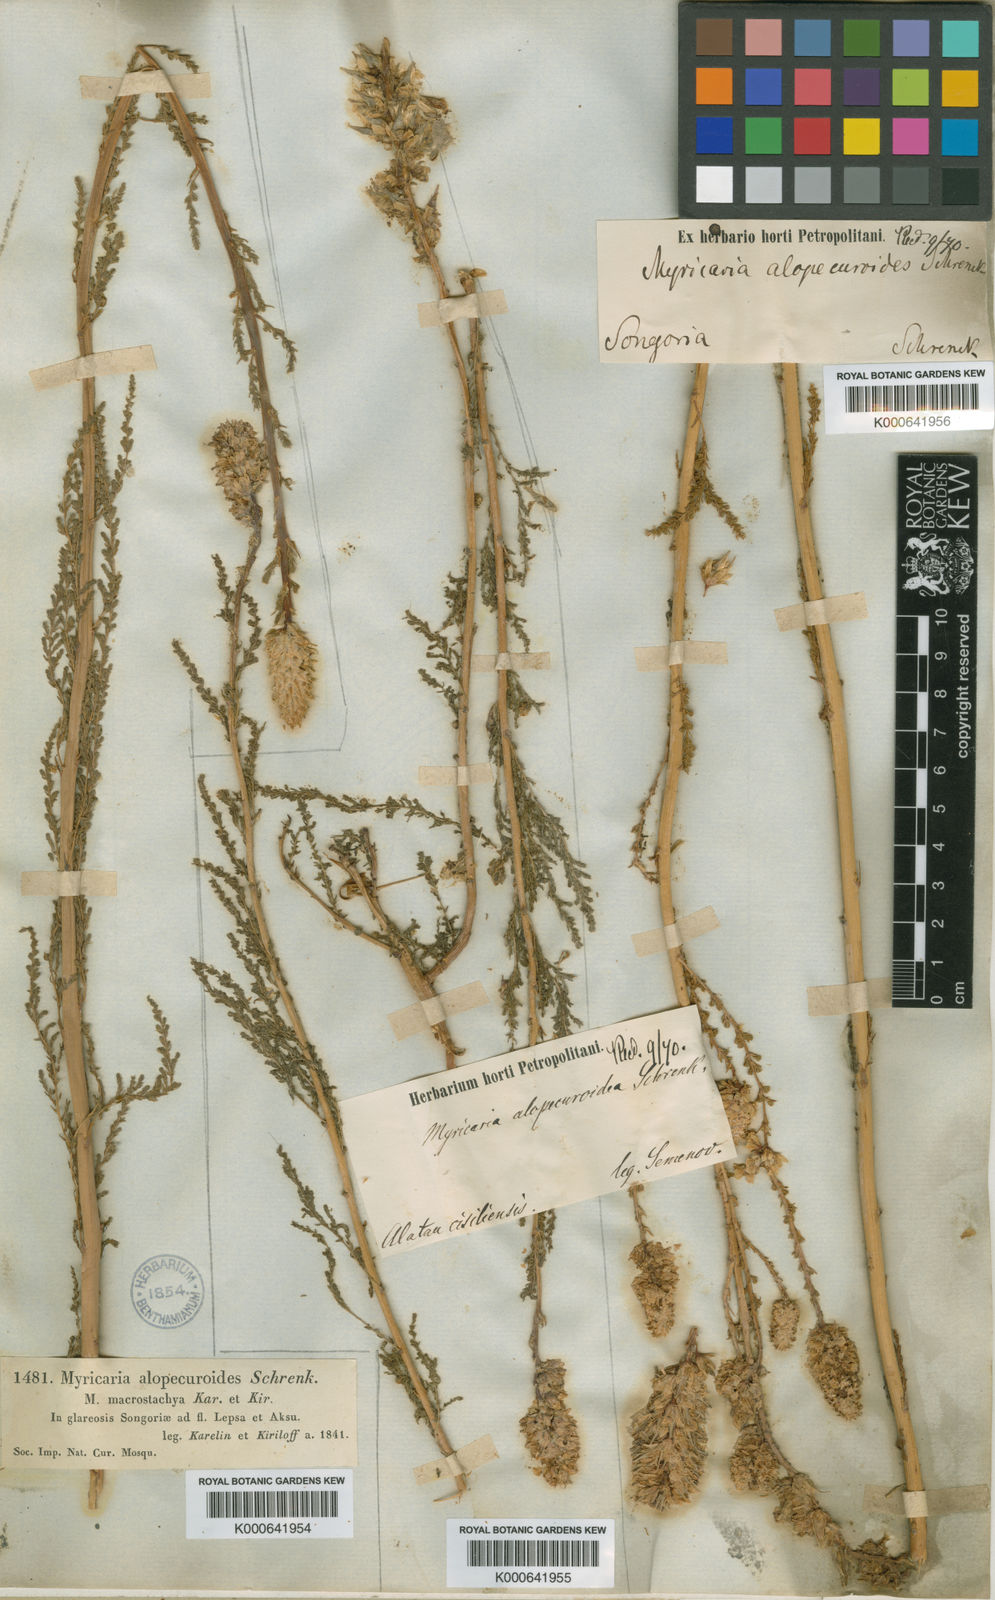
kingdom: Plantae
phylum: Tracheophyta
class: Magnoliopsida
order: Caryophyllales
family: Tamaricaceae
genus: Myricaria
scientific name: Myricaria bracteata
